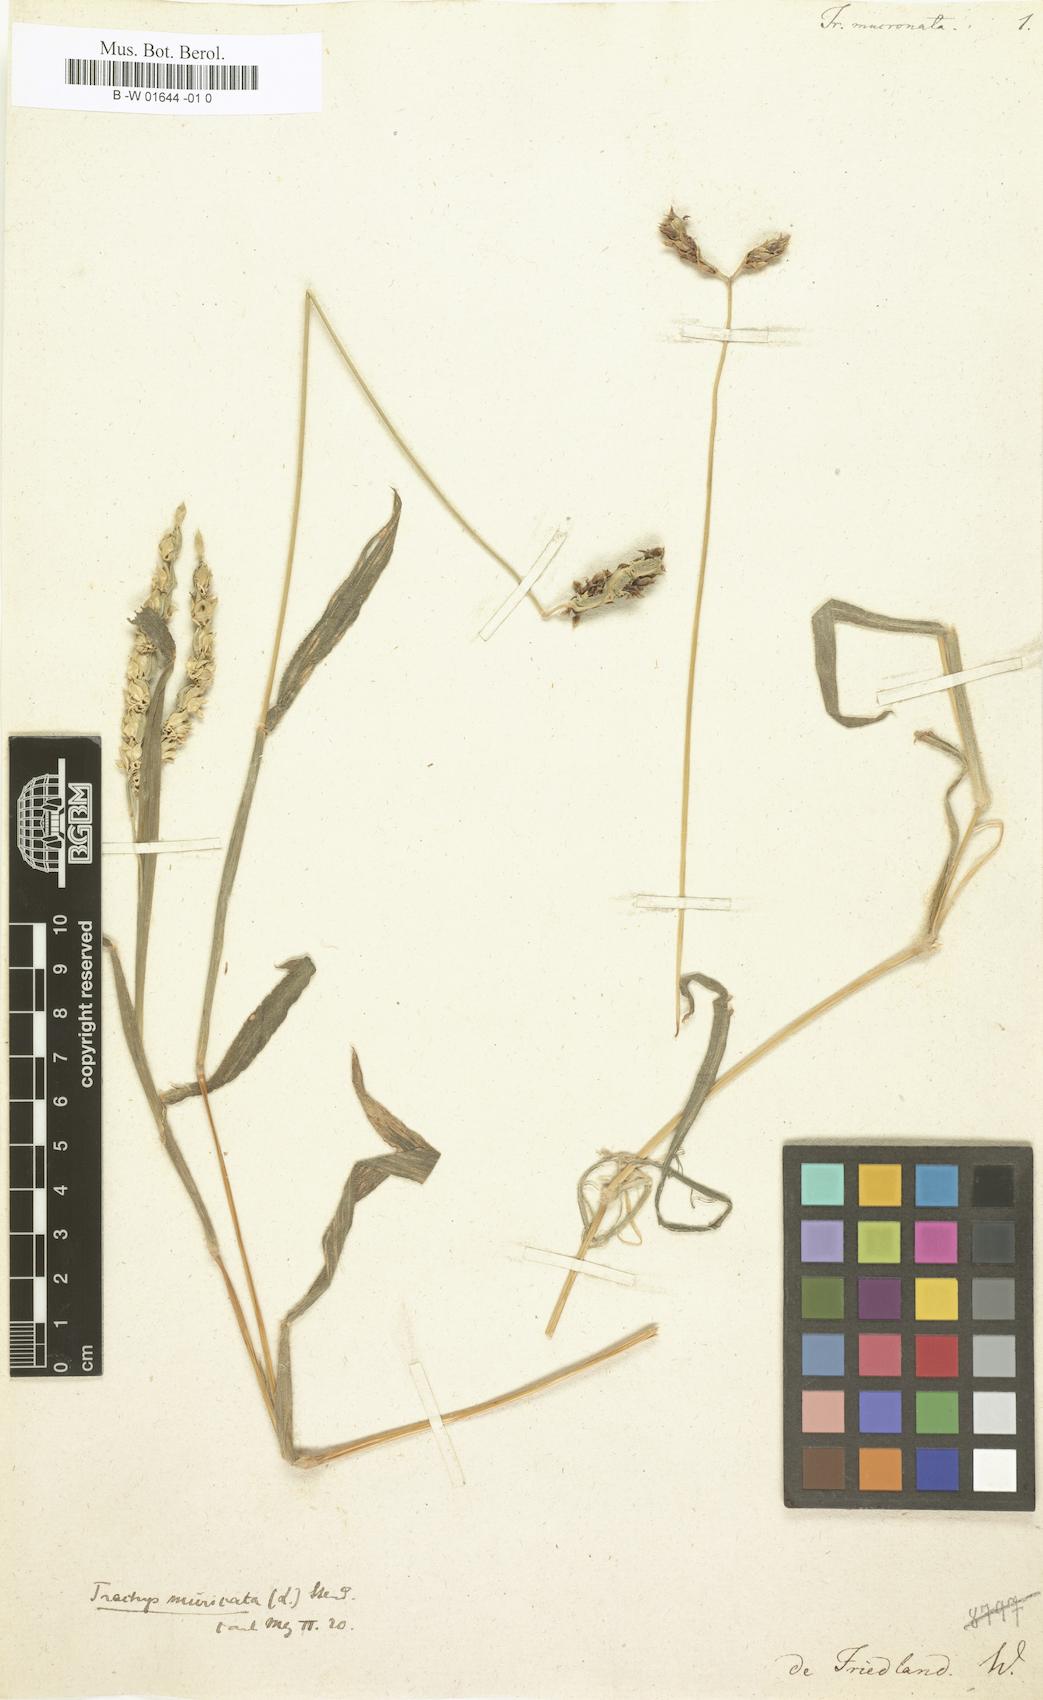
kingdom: Plantae
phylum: Tracheophyta
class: Liliopsida
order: Poales
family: Poaceae
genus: Trachys
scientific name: Trachys muricata
